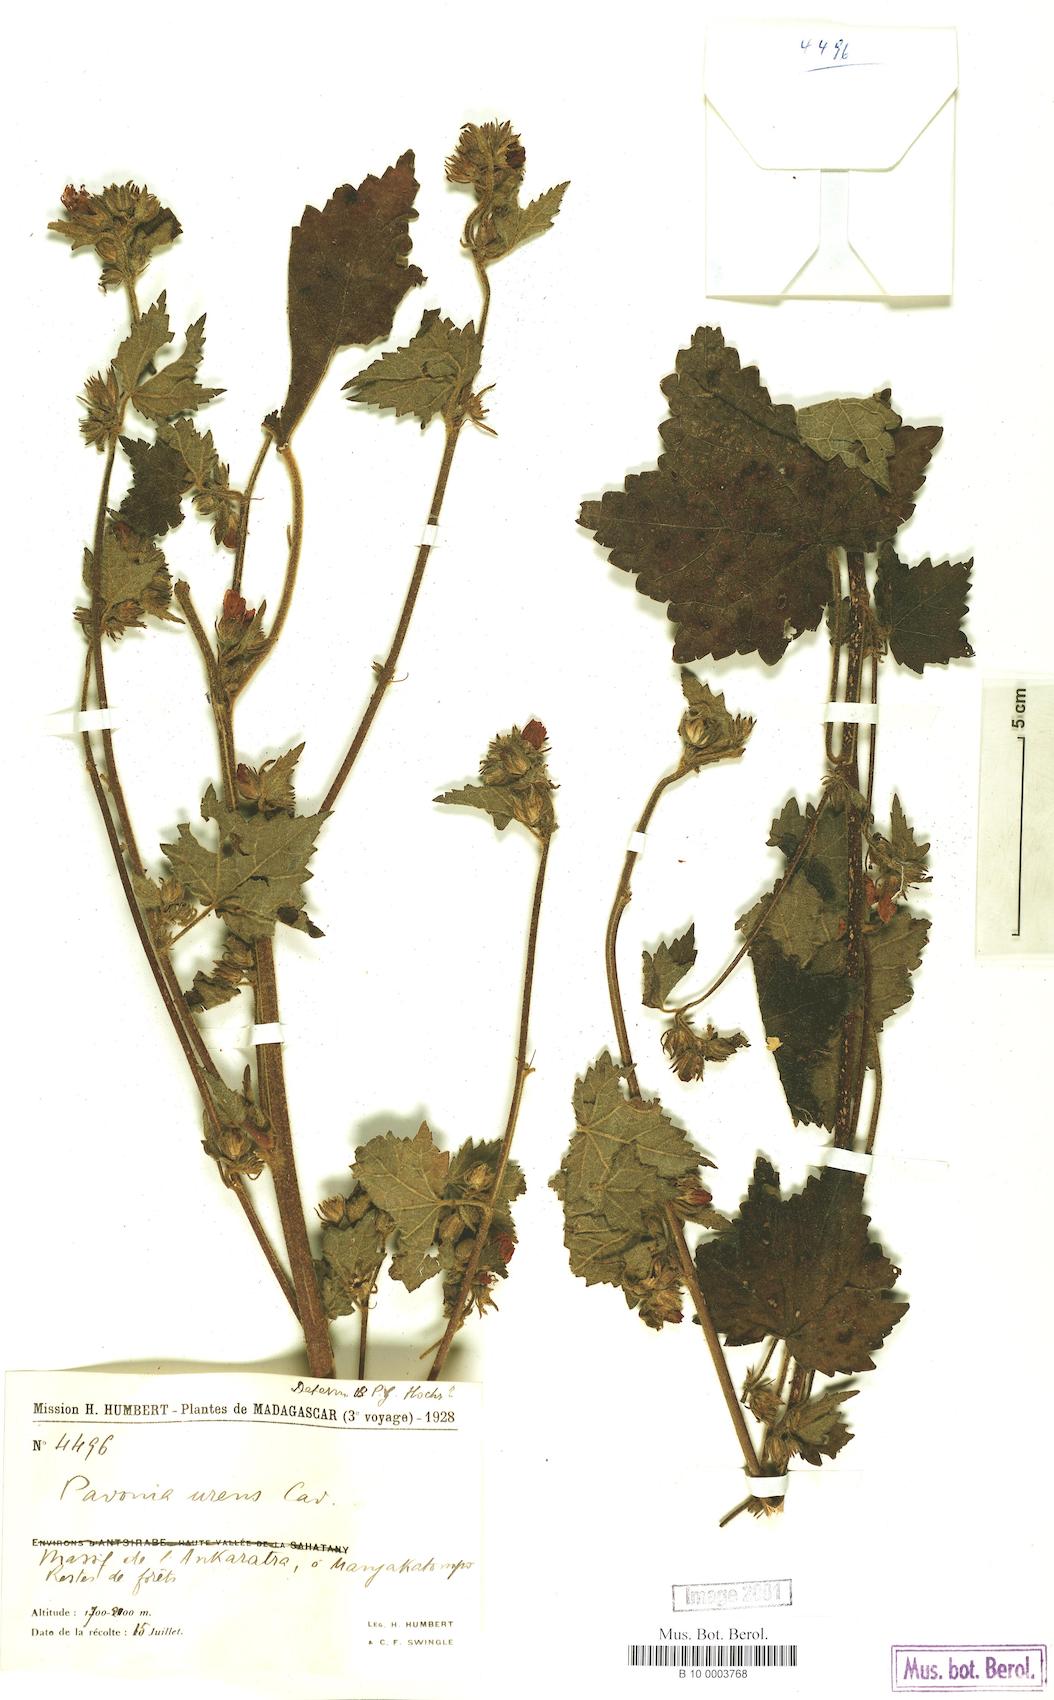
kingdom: Plantae
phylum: Tracheophyta
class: Magnoliopsida
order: Malvales
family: Malvaceae
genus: Pavonia
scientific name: Pavonia urens
